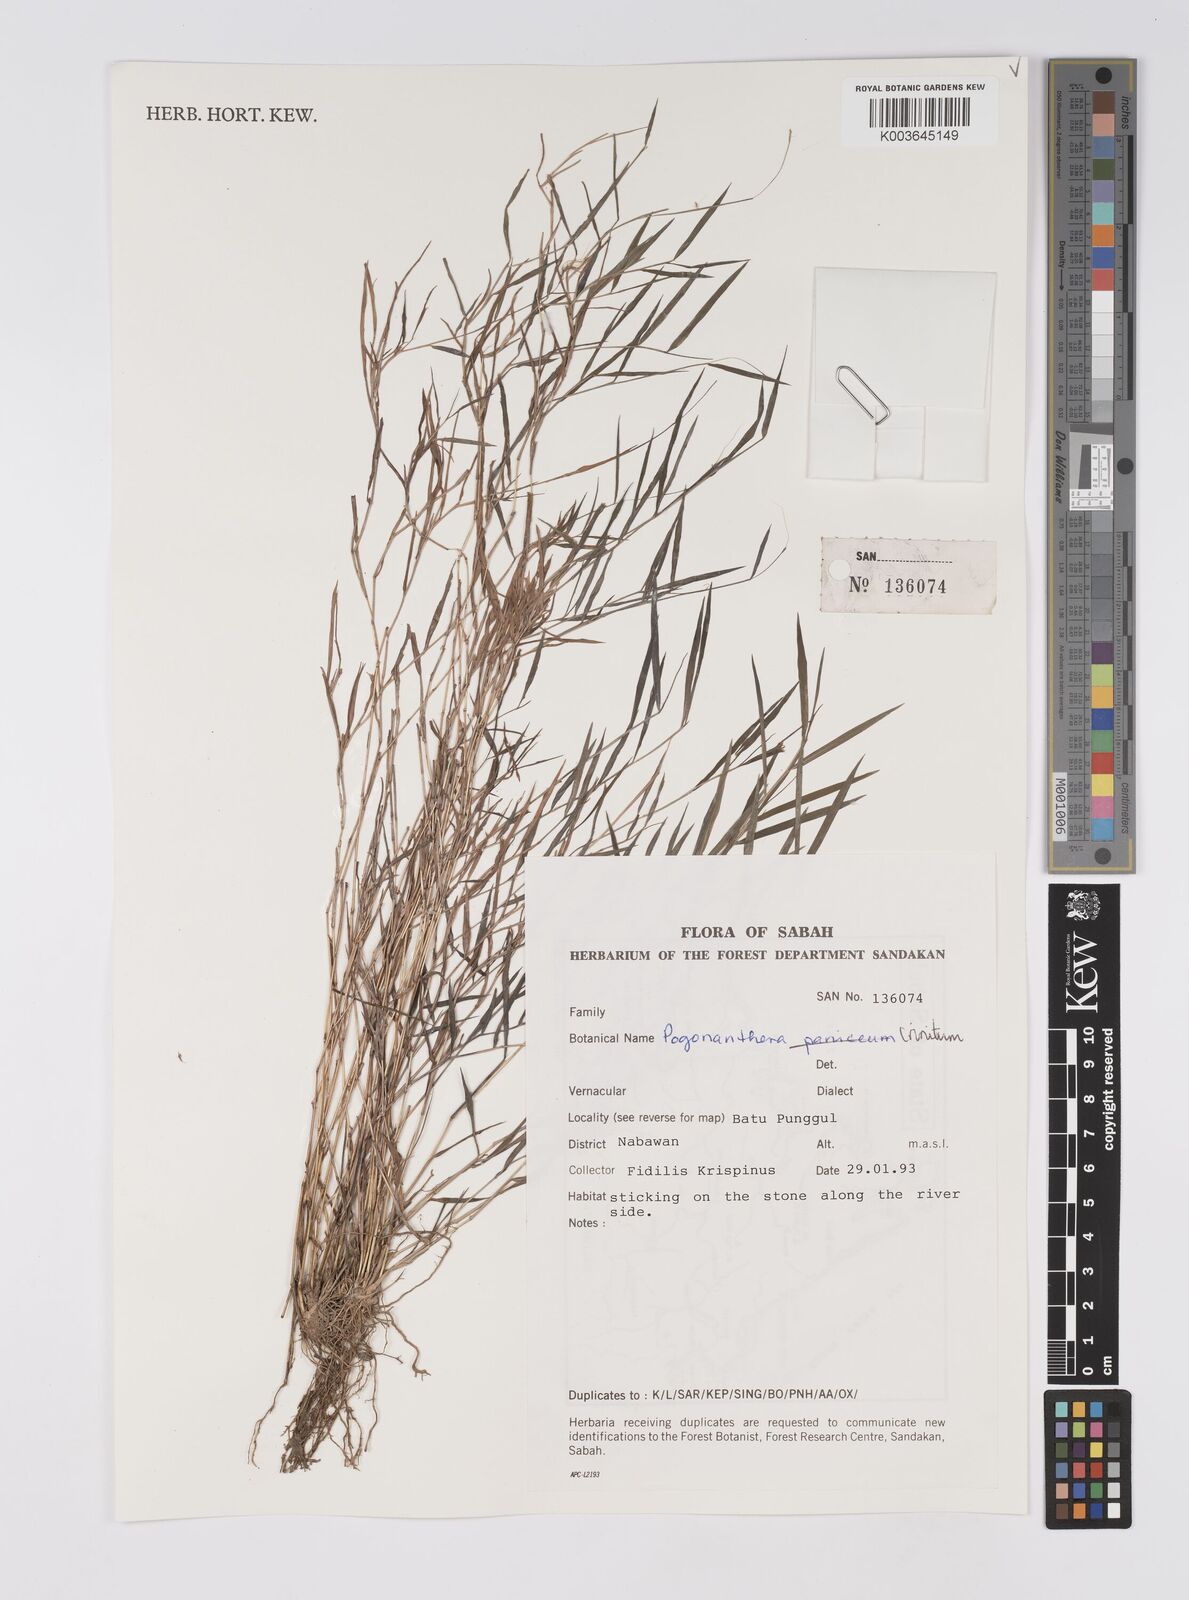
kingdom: Plantae
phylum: Tracheophyta
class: Liliopsida
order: Poales
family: Poaceae
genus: Pogonatherum
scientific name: Pogonatherum crinitum
